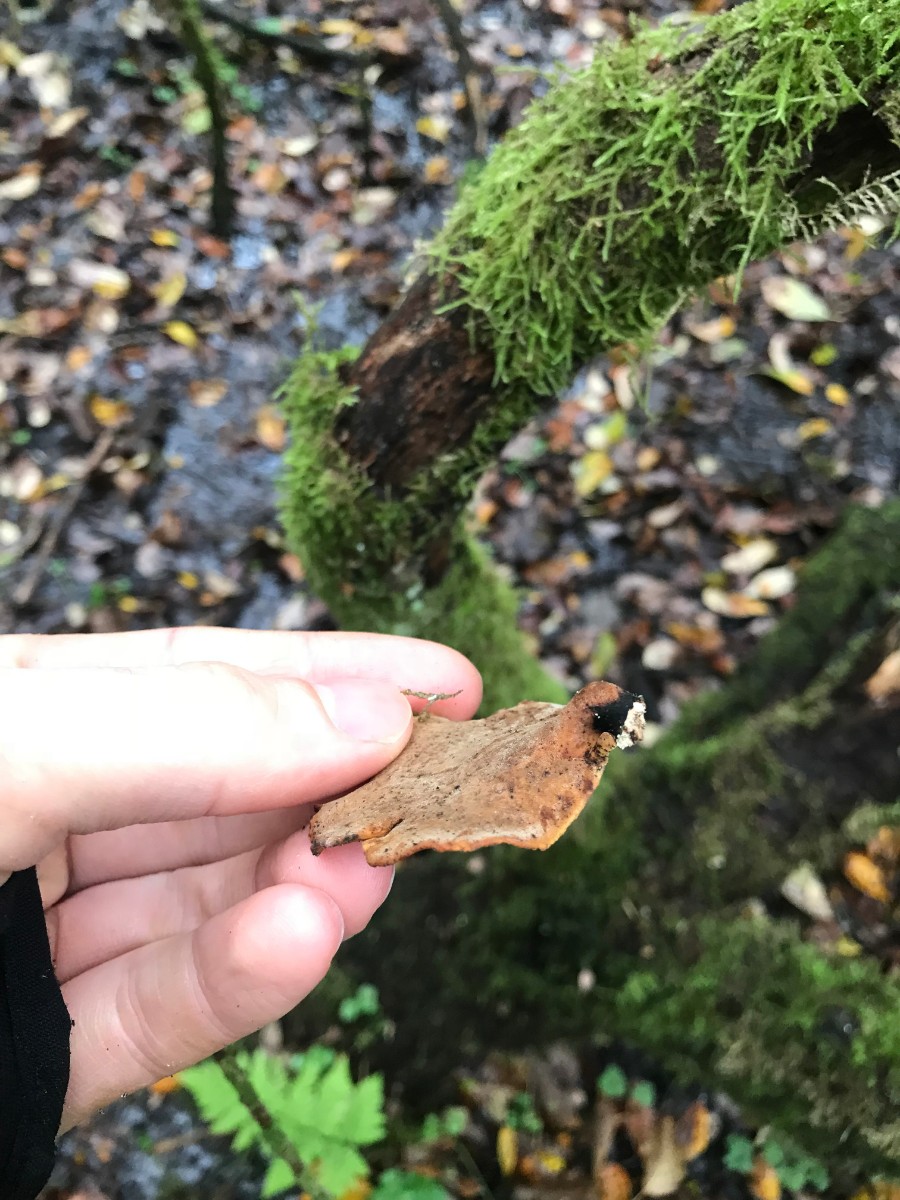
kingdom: Fungi
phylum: Basidiomycota
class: Agaricomycetes
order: Polyporales
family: Polyporaceae
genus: Cerioporus
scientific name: Cerioporus varius
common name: foranderlig stilkporesvamp
